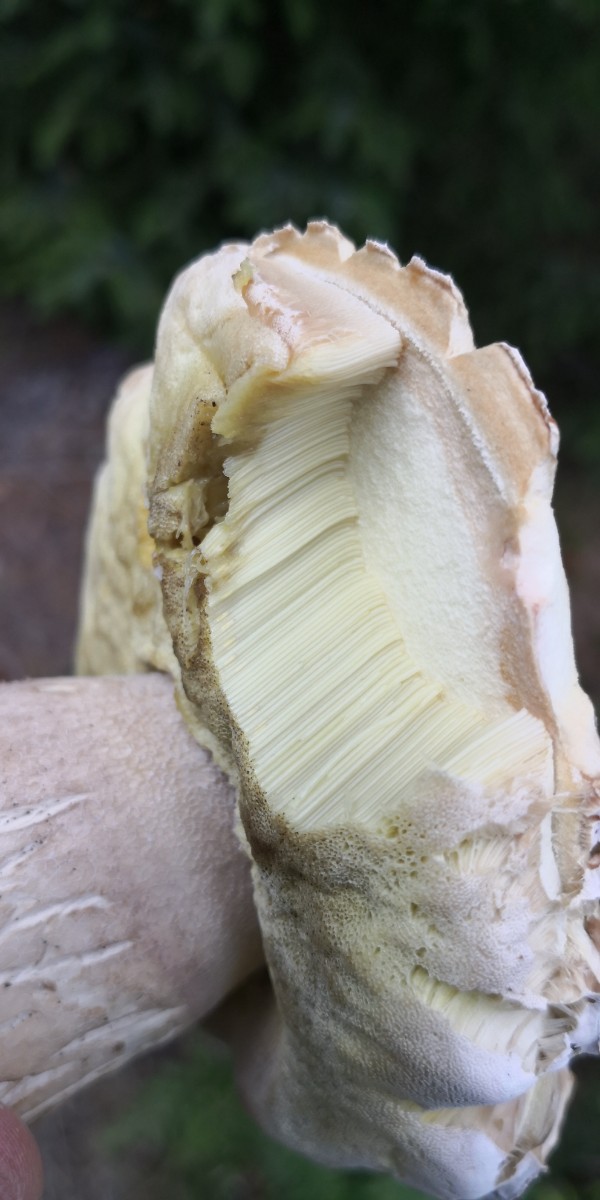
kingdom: Fungi
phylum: Basidiomycota
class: Agaricomycetes
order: Boletales
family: Boletaceae
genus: Boletus
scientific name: Boletus reticulatus
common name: sommer-rørhat
